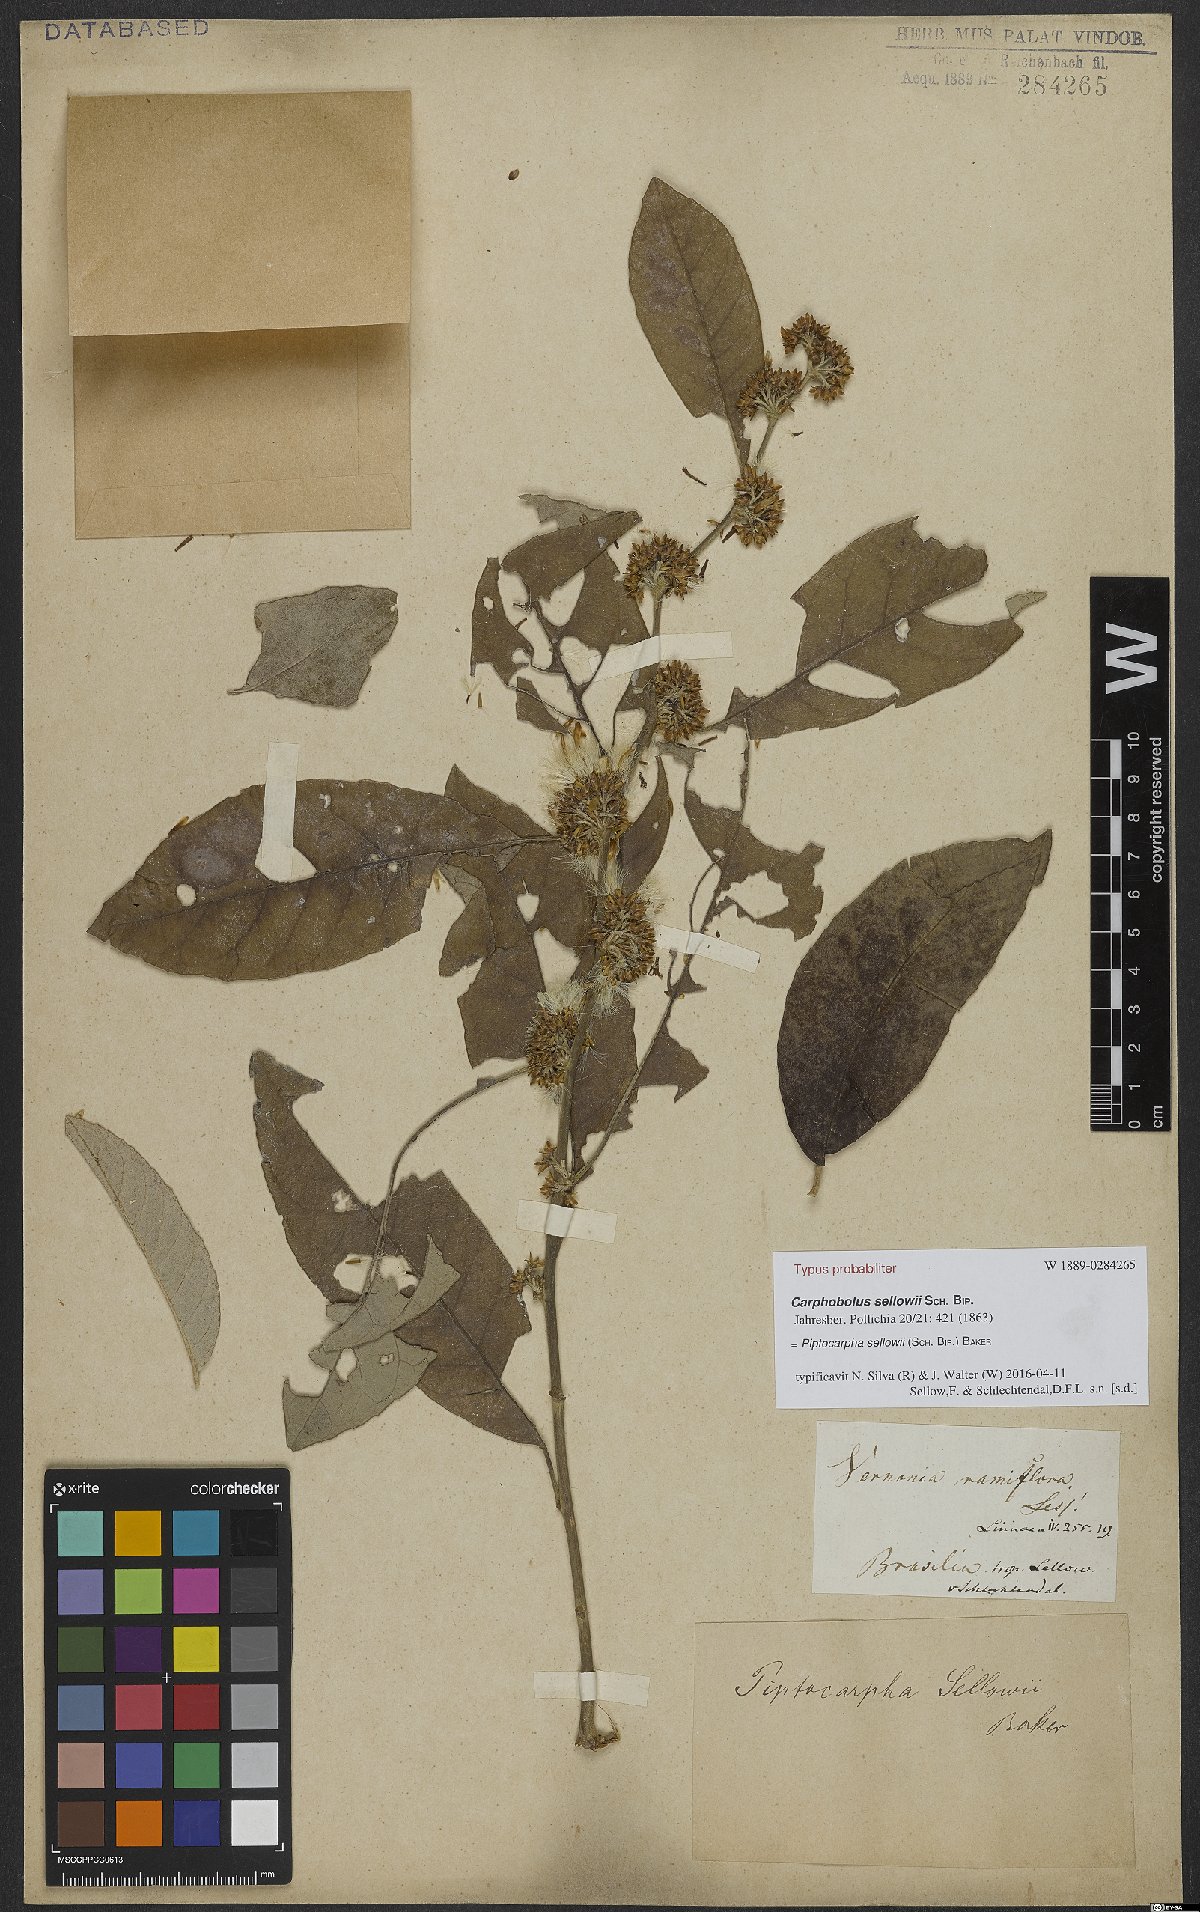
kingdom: Plantae
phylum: Tracheophyta
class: Magnoliopsida
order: Asterales
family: Asteraceae
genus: Piptocarpha
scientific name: Piptocarpha sellowii
